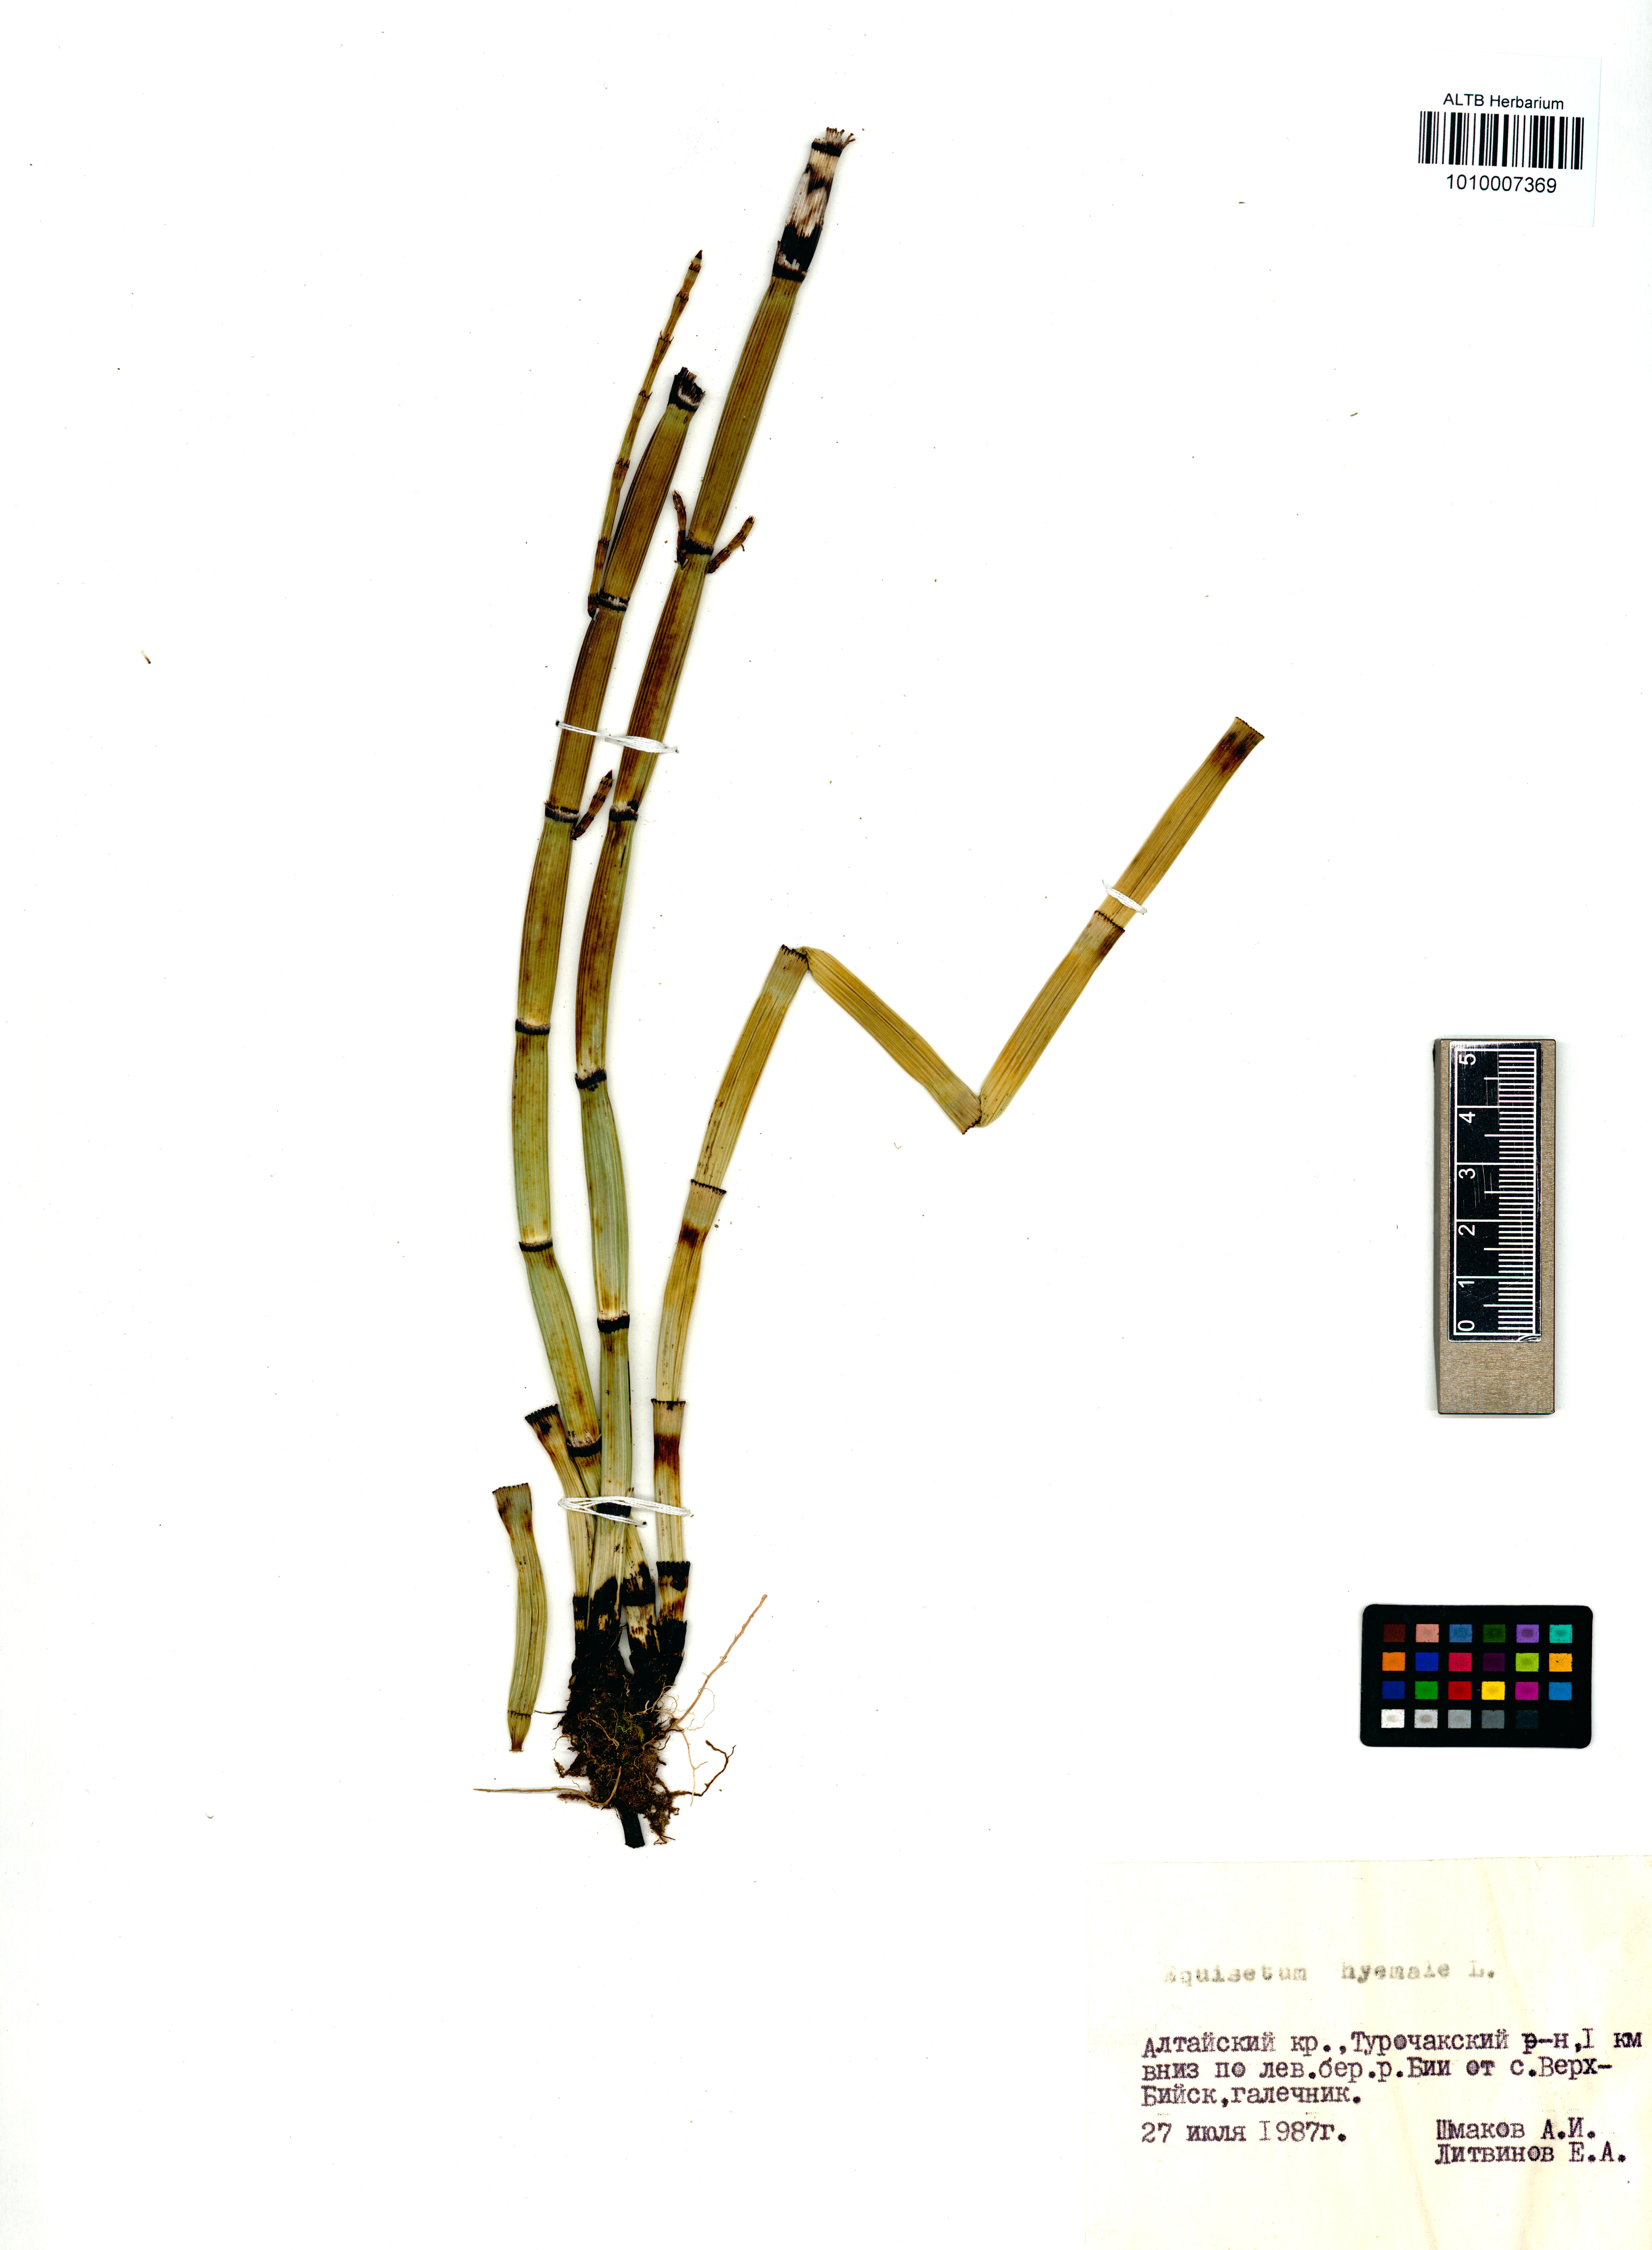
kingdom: Plantae
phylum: Tracheophyta
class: Polypodiopsida
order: Equisetales
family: Equisetaceae
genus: Equisetum
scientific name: Equisetum hyemale
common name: Rough horsetail
